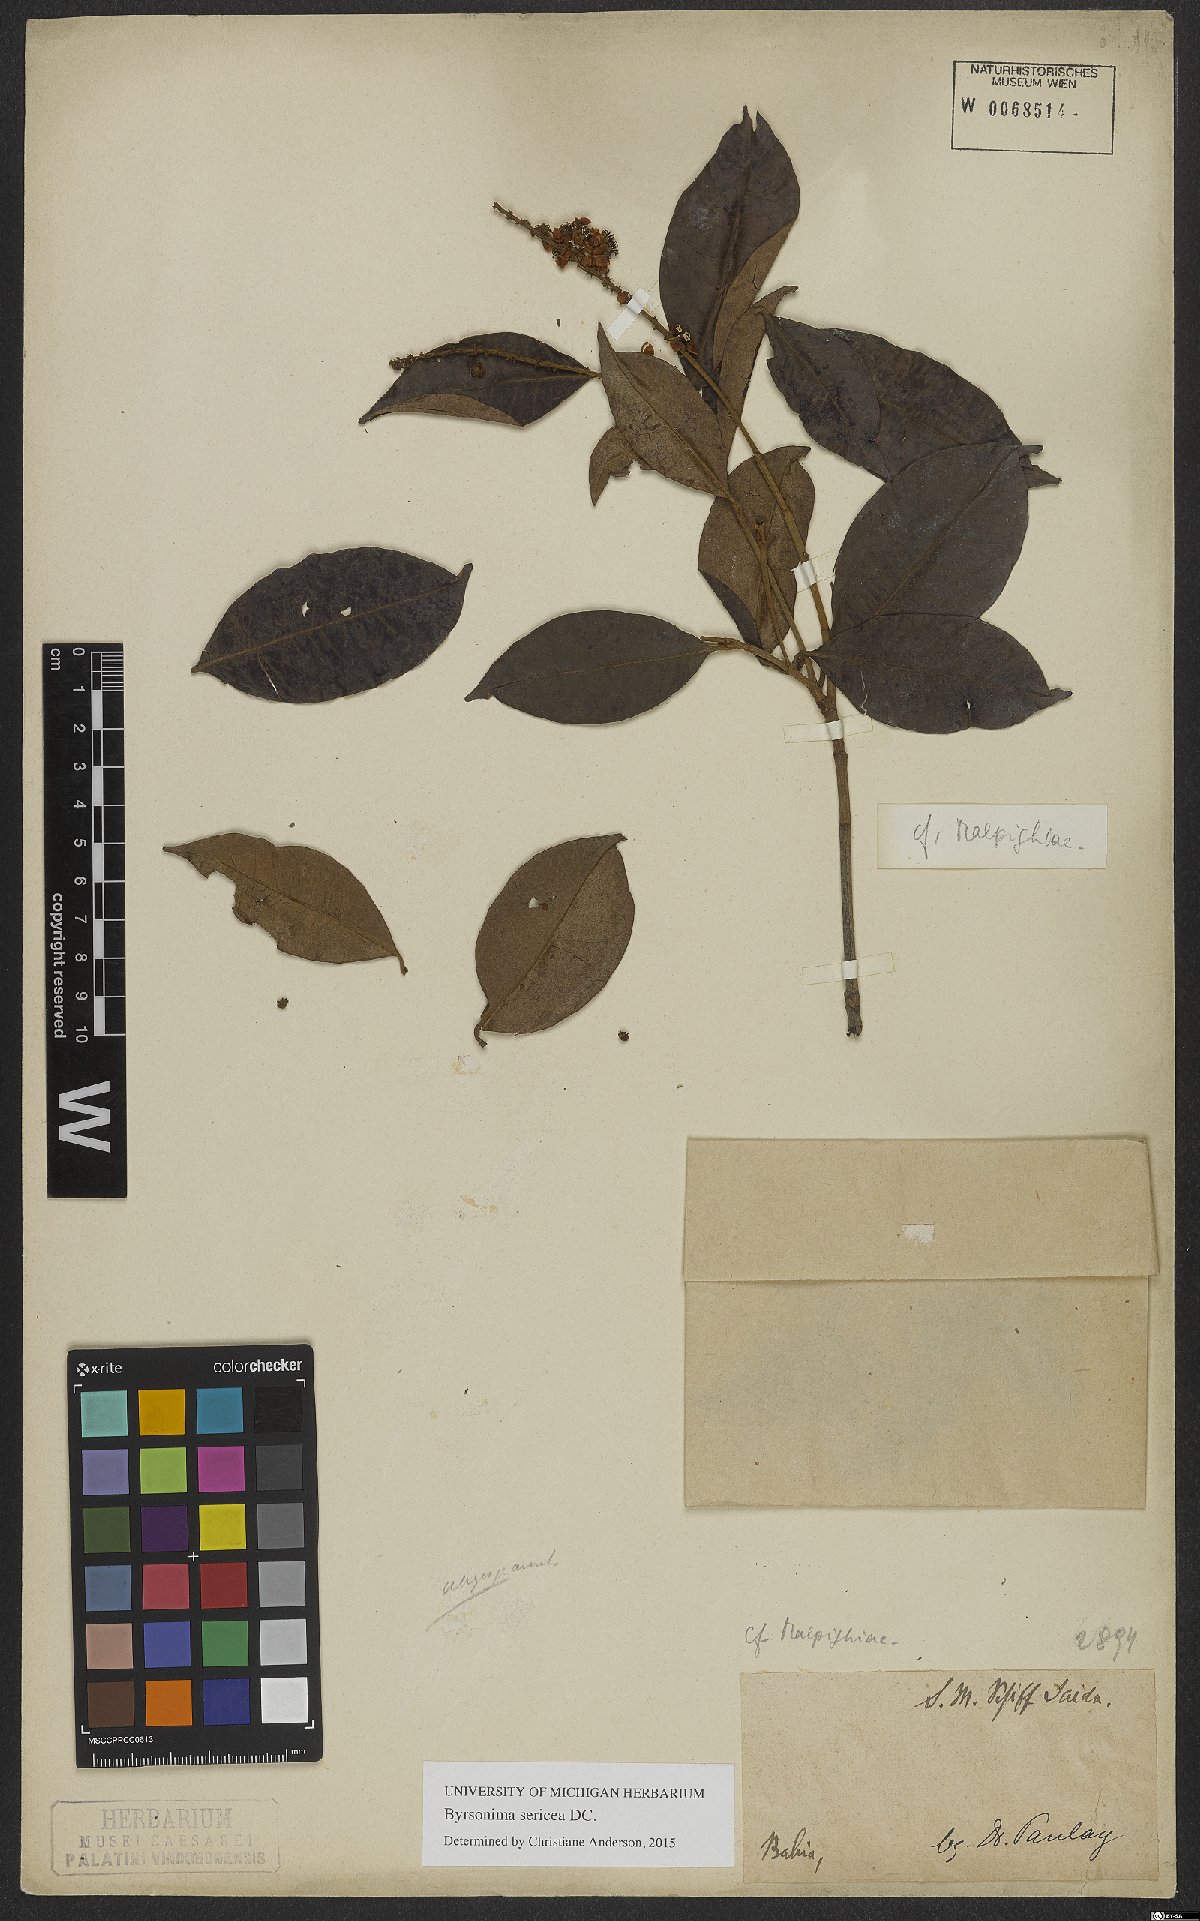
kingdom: Plantae
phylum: Tracheophyta
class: Magnoliopsida
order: Malpighiales
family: Malpighiaceae
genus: Byrsonima
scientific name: Byrsonima sericea
